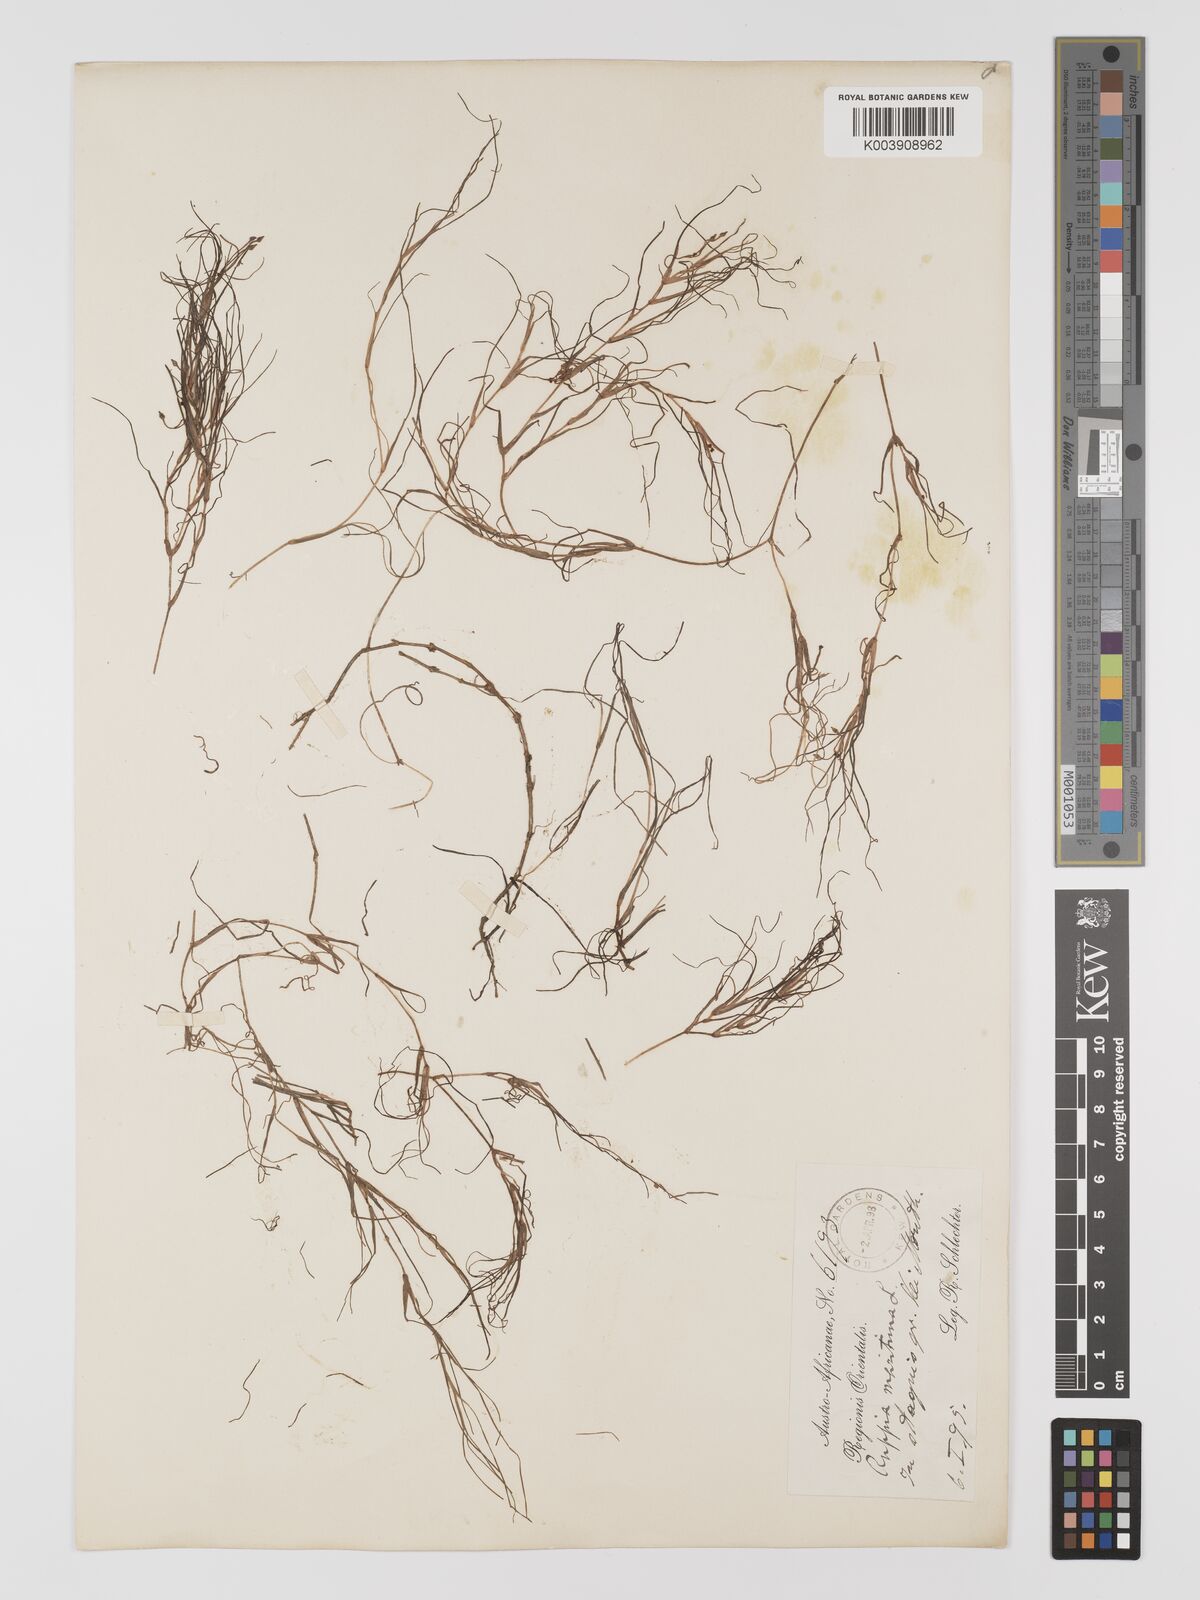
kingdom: Plantae
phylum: Tracheophyta
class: Liliopsida
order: Alismatales
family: Ruppiaceae
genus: Ruppia
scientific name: Ruppia maritima
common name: Beaked tasselweed
